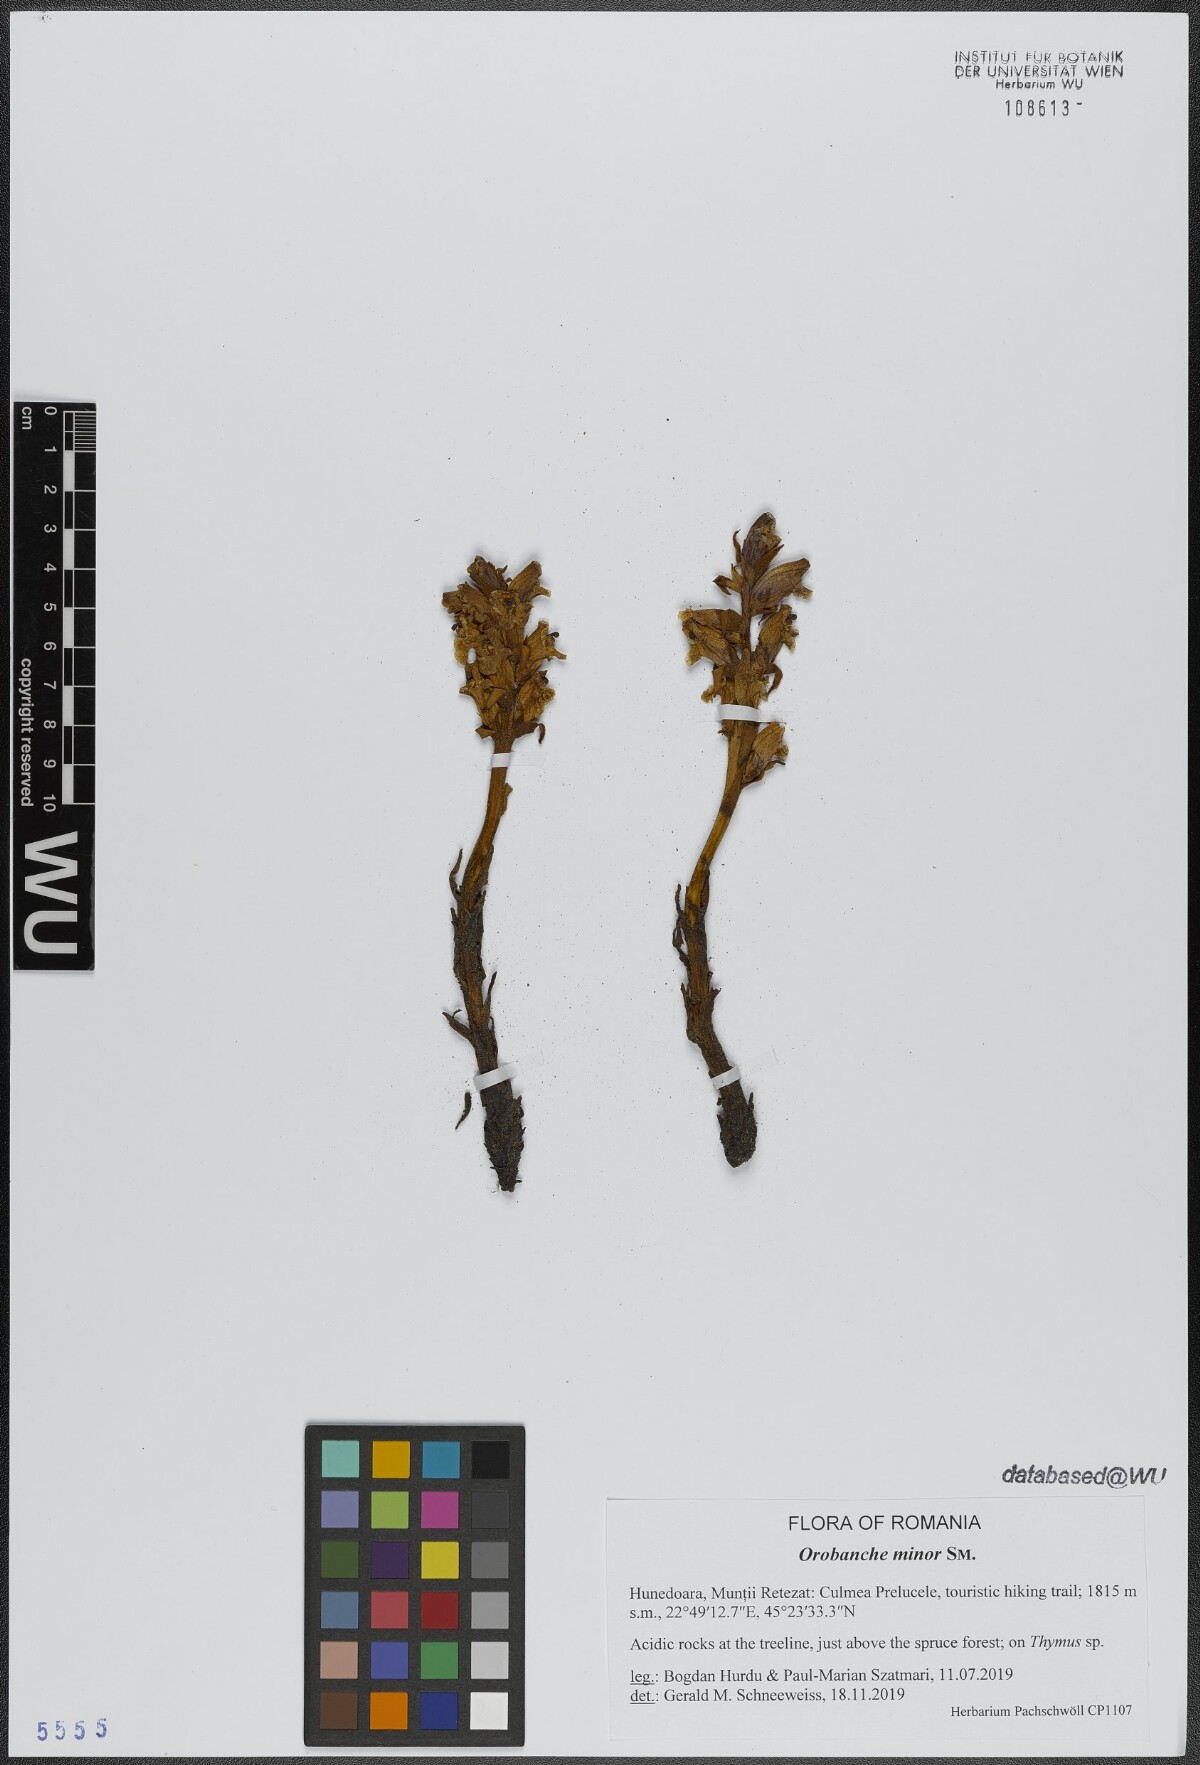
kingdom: Plantae
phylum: Tracheophyta
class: Magnoliopsida
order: Lamiales
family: Orobanchaceae
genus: Orobanche
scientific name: Orobanche minor
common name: Common broomrape
